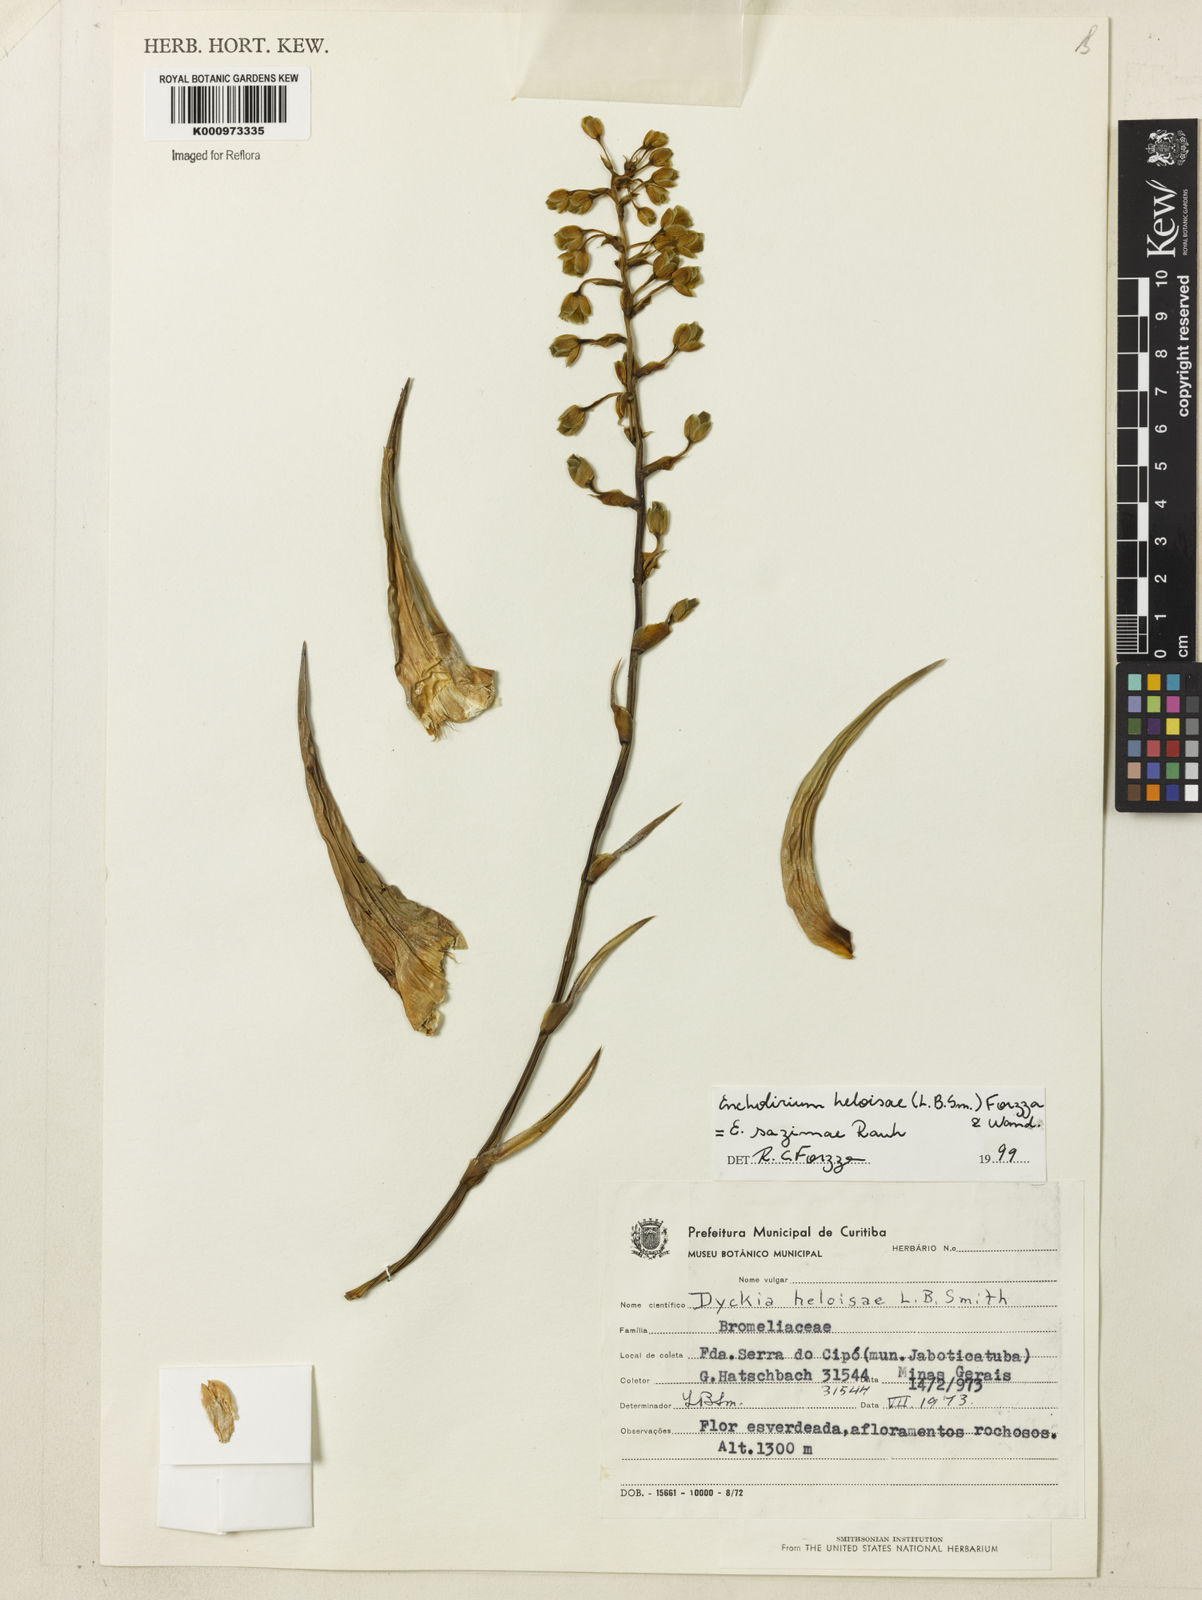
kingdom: Plantae
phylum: Tracheophyta
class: Liliopsida
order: Poales
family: Bromeliaceae
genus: Encholirium
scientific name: Encholirium heloisae
